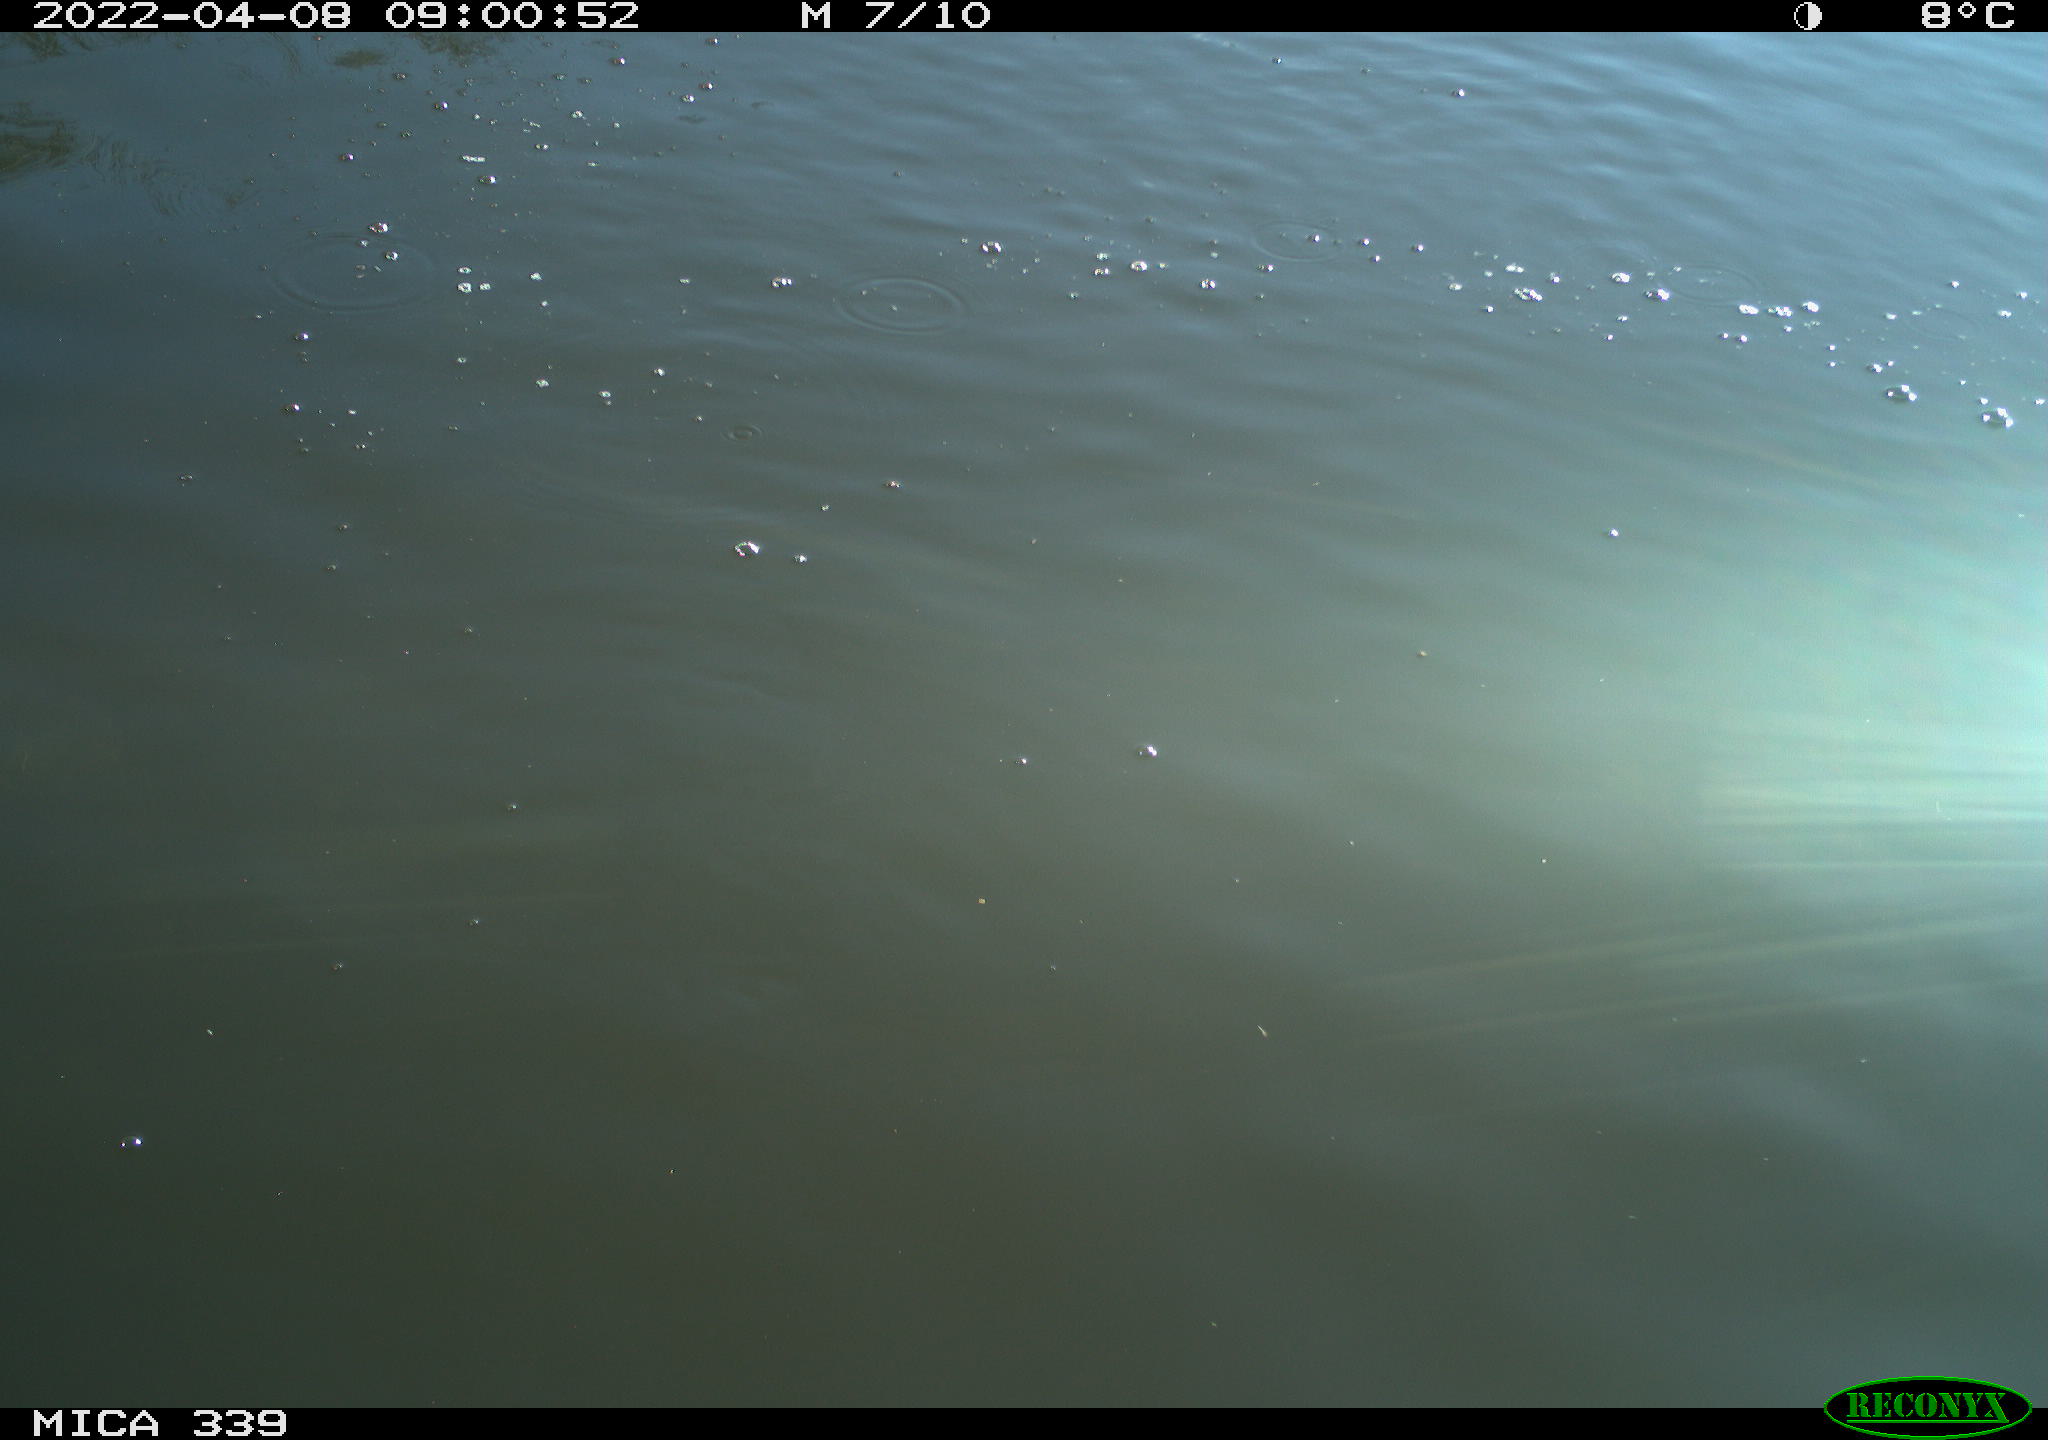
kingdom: Animalia
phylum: Chordata
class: Aves
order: Suliformes
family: Phalacrocoracidae
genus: Phalacrocorax
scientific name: Phalacrocorax carbo
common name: Great cormorant
